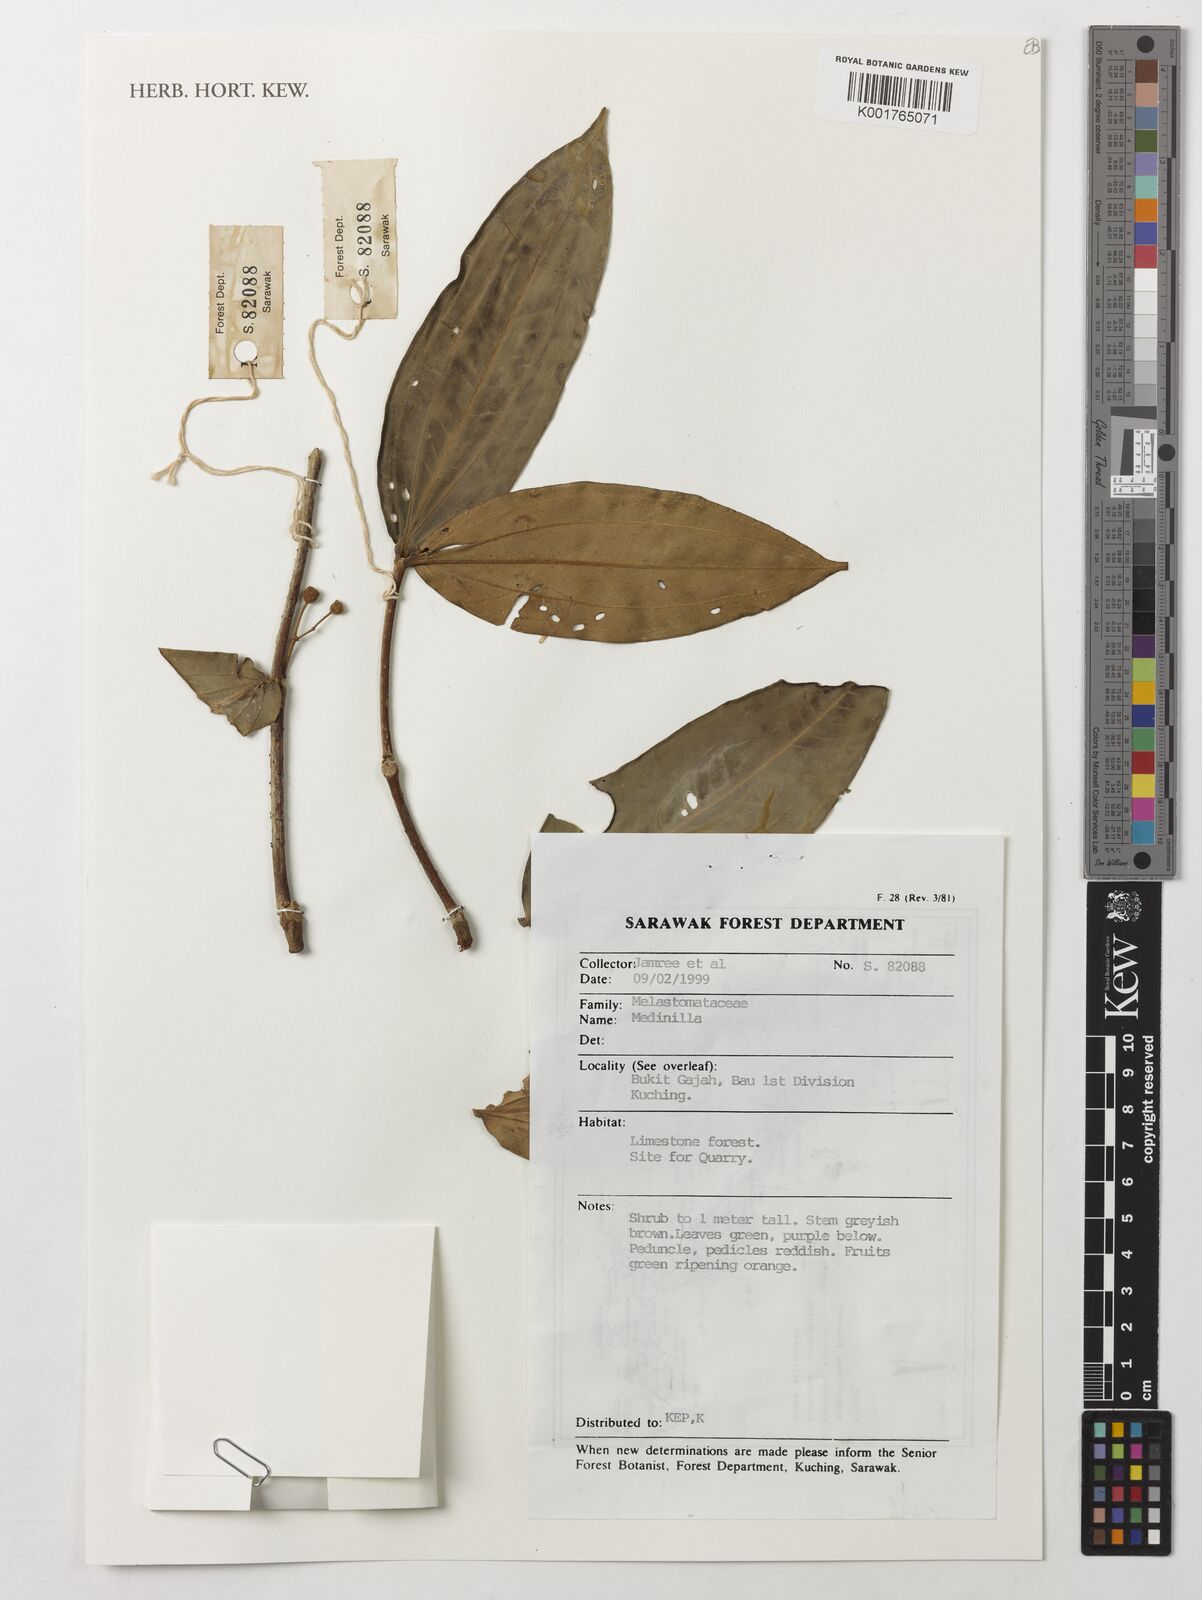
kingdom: Plantae
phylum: Tracheophyta
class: Magnoliopsida
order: Myrtales
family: Melastomataceae
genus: Medinilla
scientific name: Medinilla
